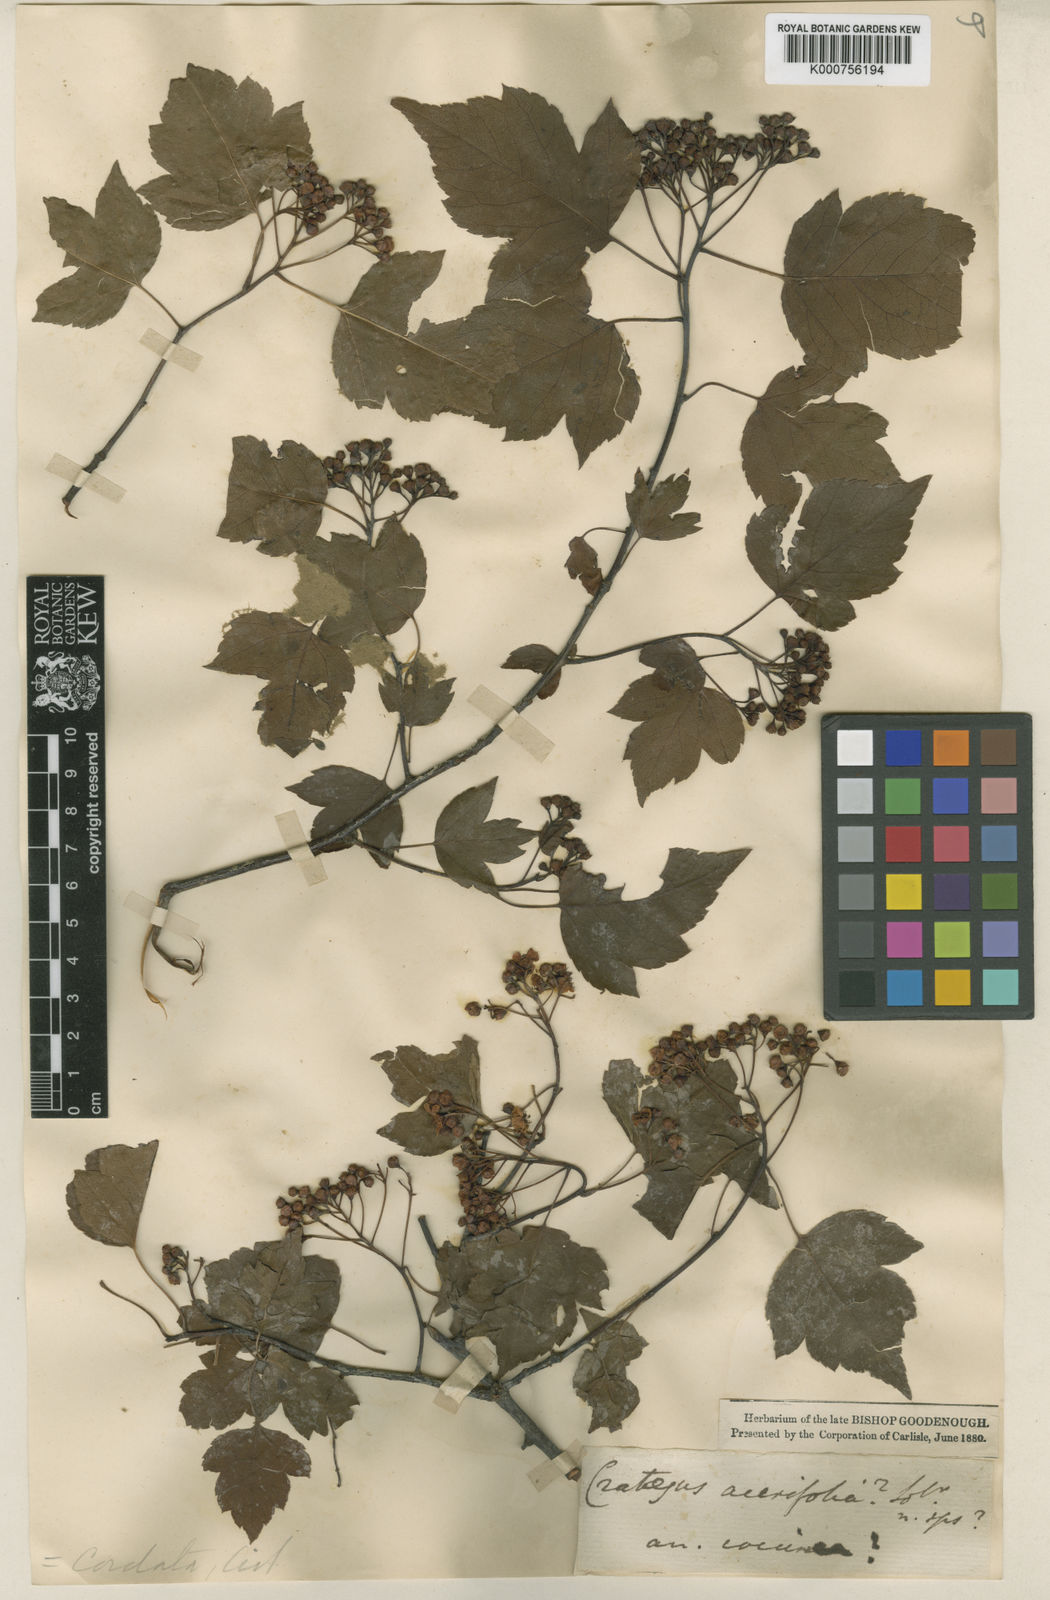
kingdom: Plantae
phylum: Tracheophyta
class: Magnoliopsida
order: Rosales
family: Rosaceae
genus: Crataegus
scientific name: Crataegus
